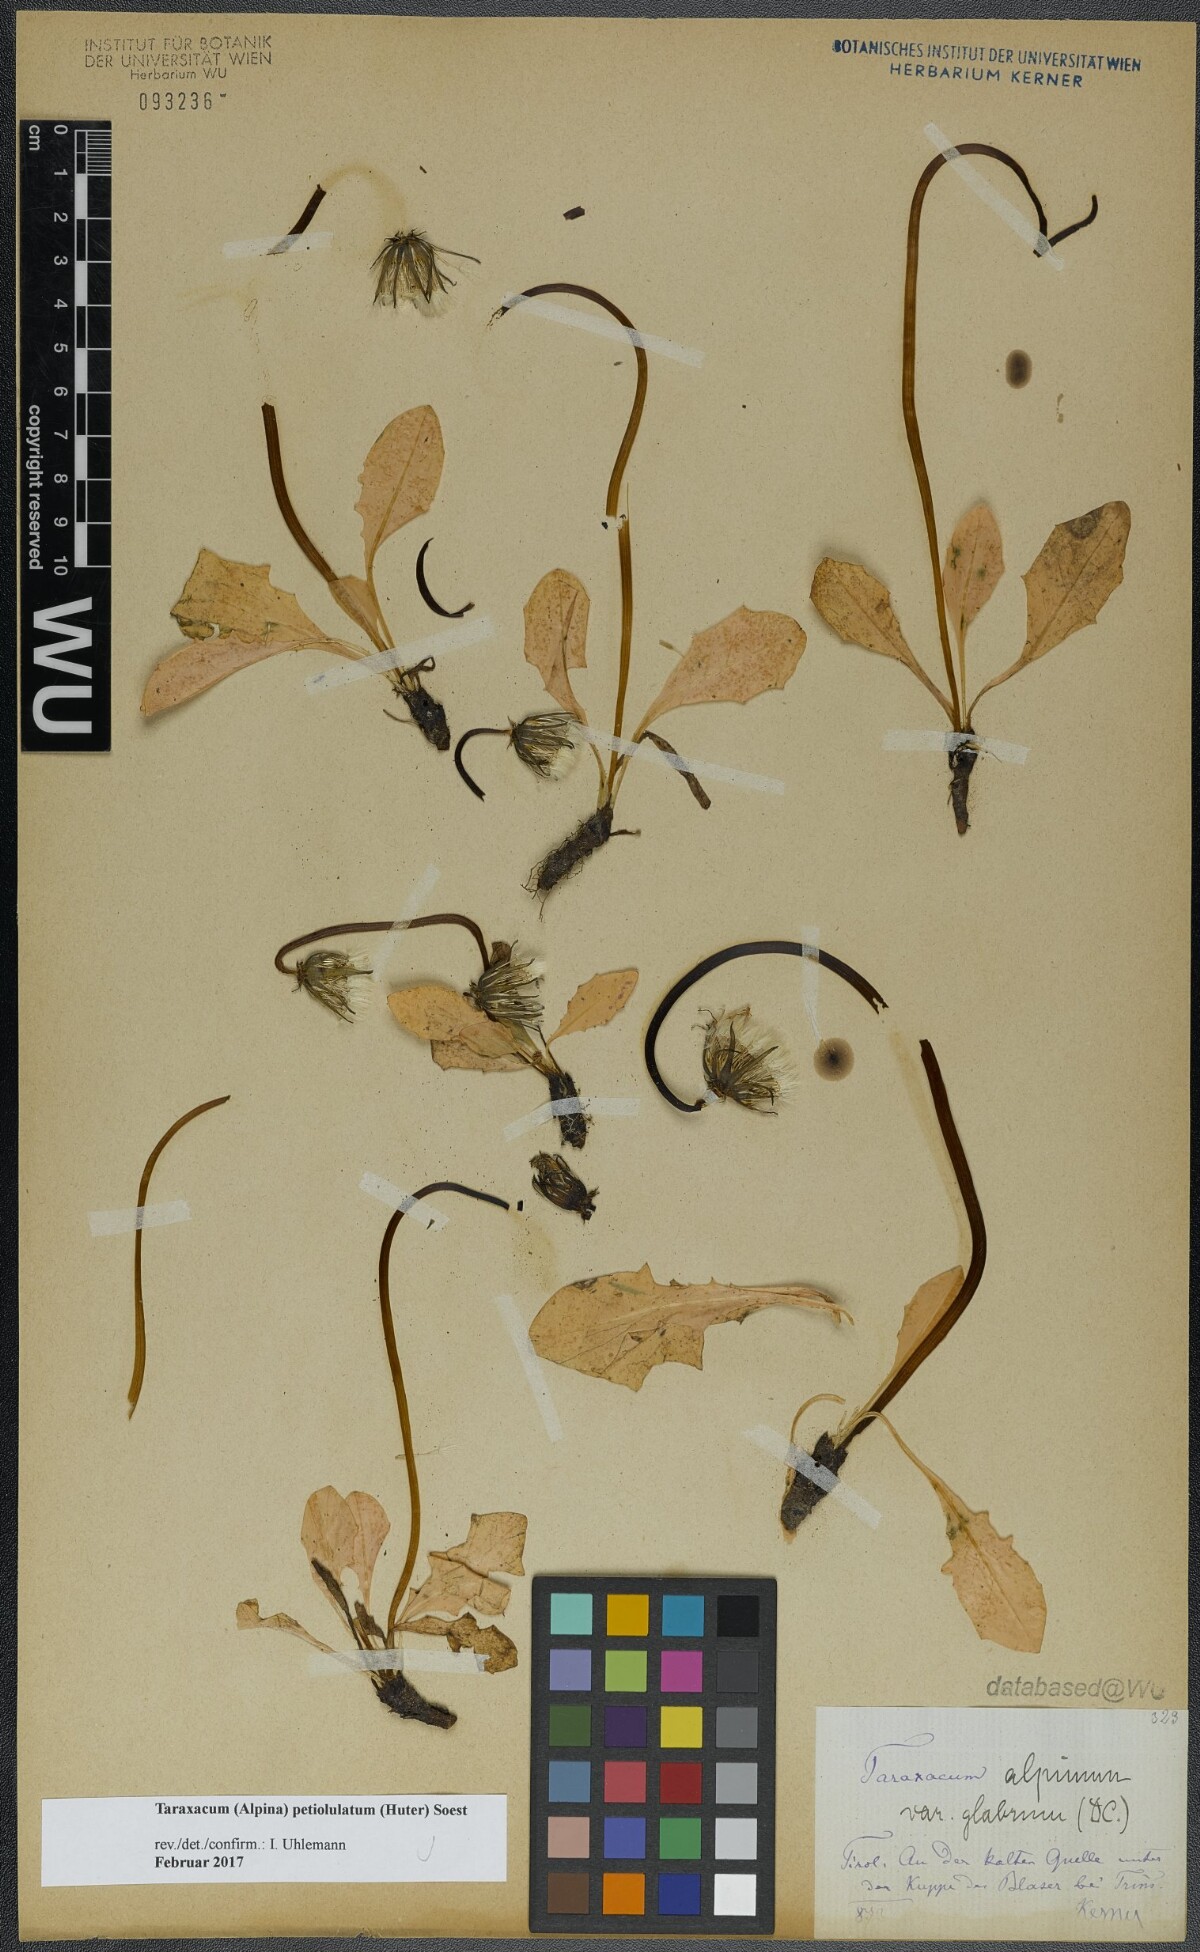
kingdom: Plantae
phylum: Tracheophyta
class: Magnoliopsida
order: Asterales
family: Asteraceae
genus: Taraxacum
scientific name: Taraxacum petiolulatum
